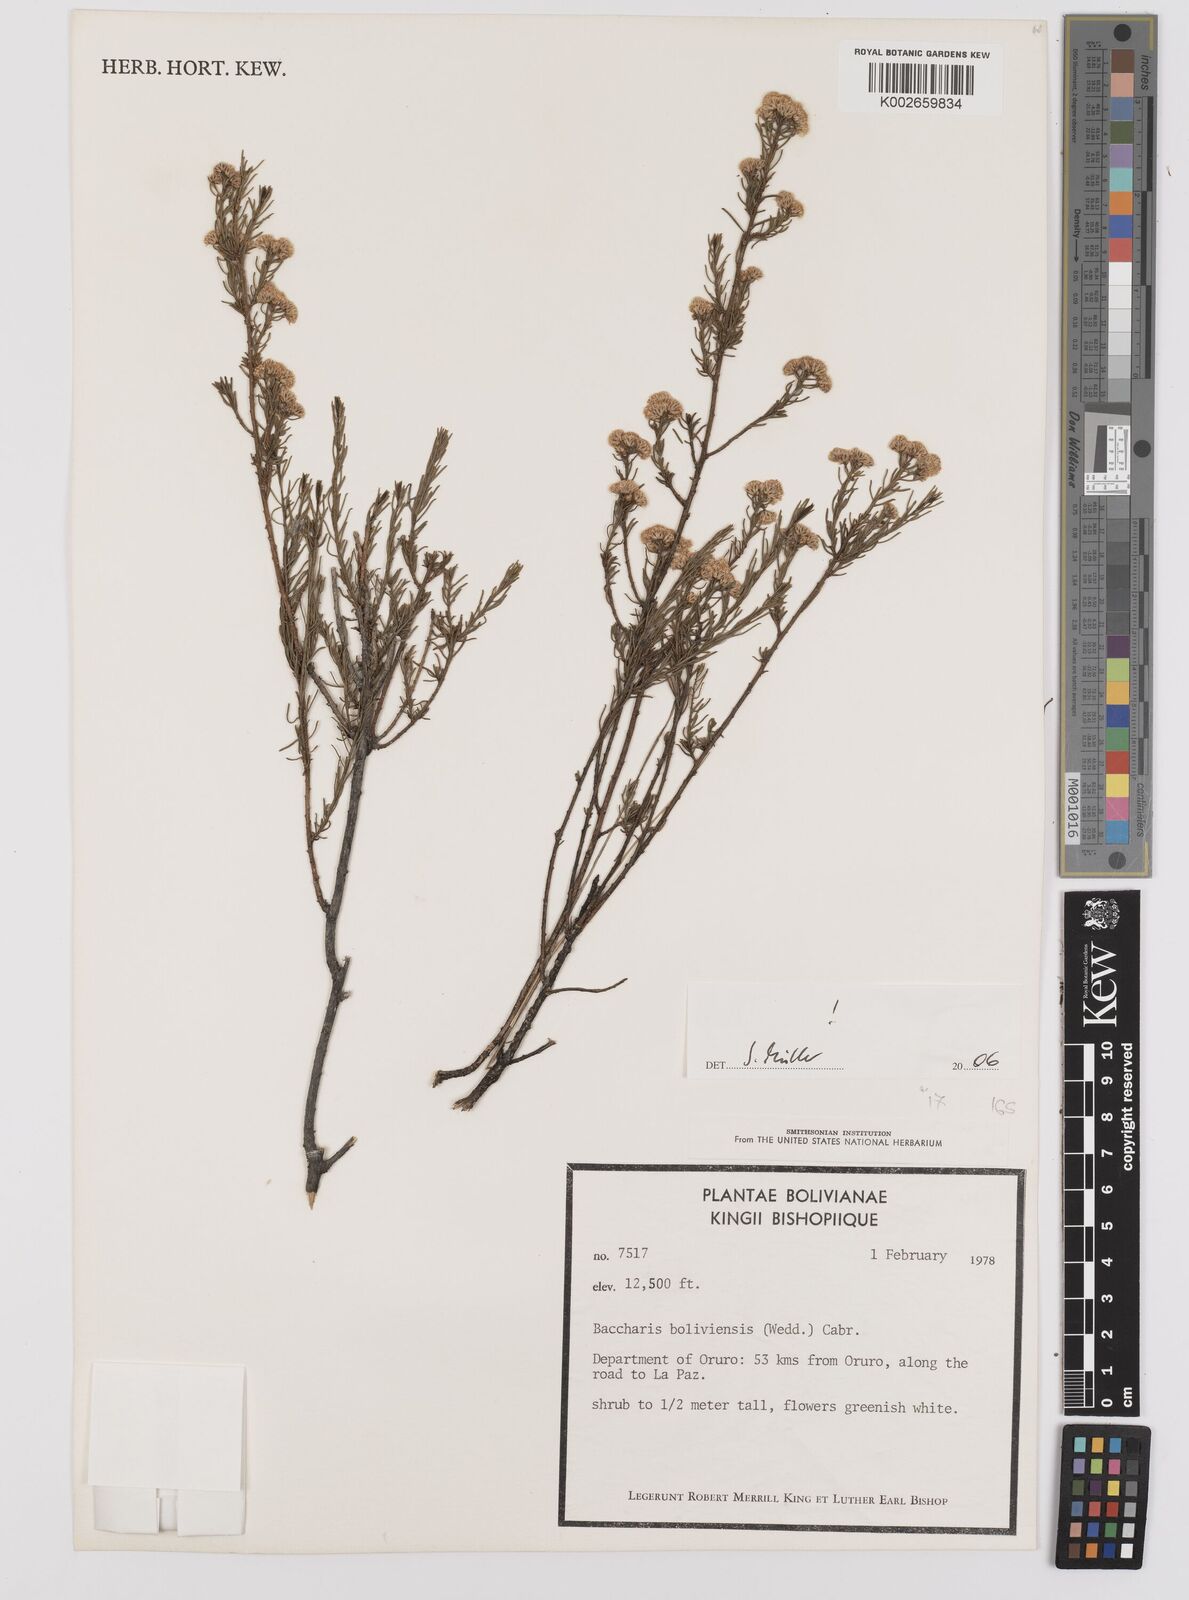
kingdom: Plantae
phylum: Tracheophyta
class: Magnoliopsida
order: Asterales
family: Asteraceae
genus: Baccharis
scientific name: Baccharis bolivensis
